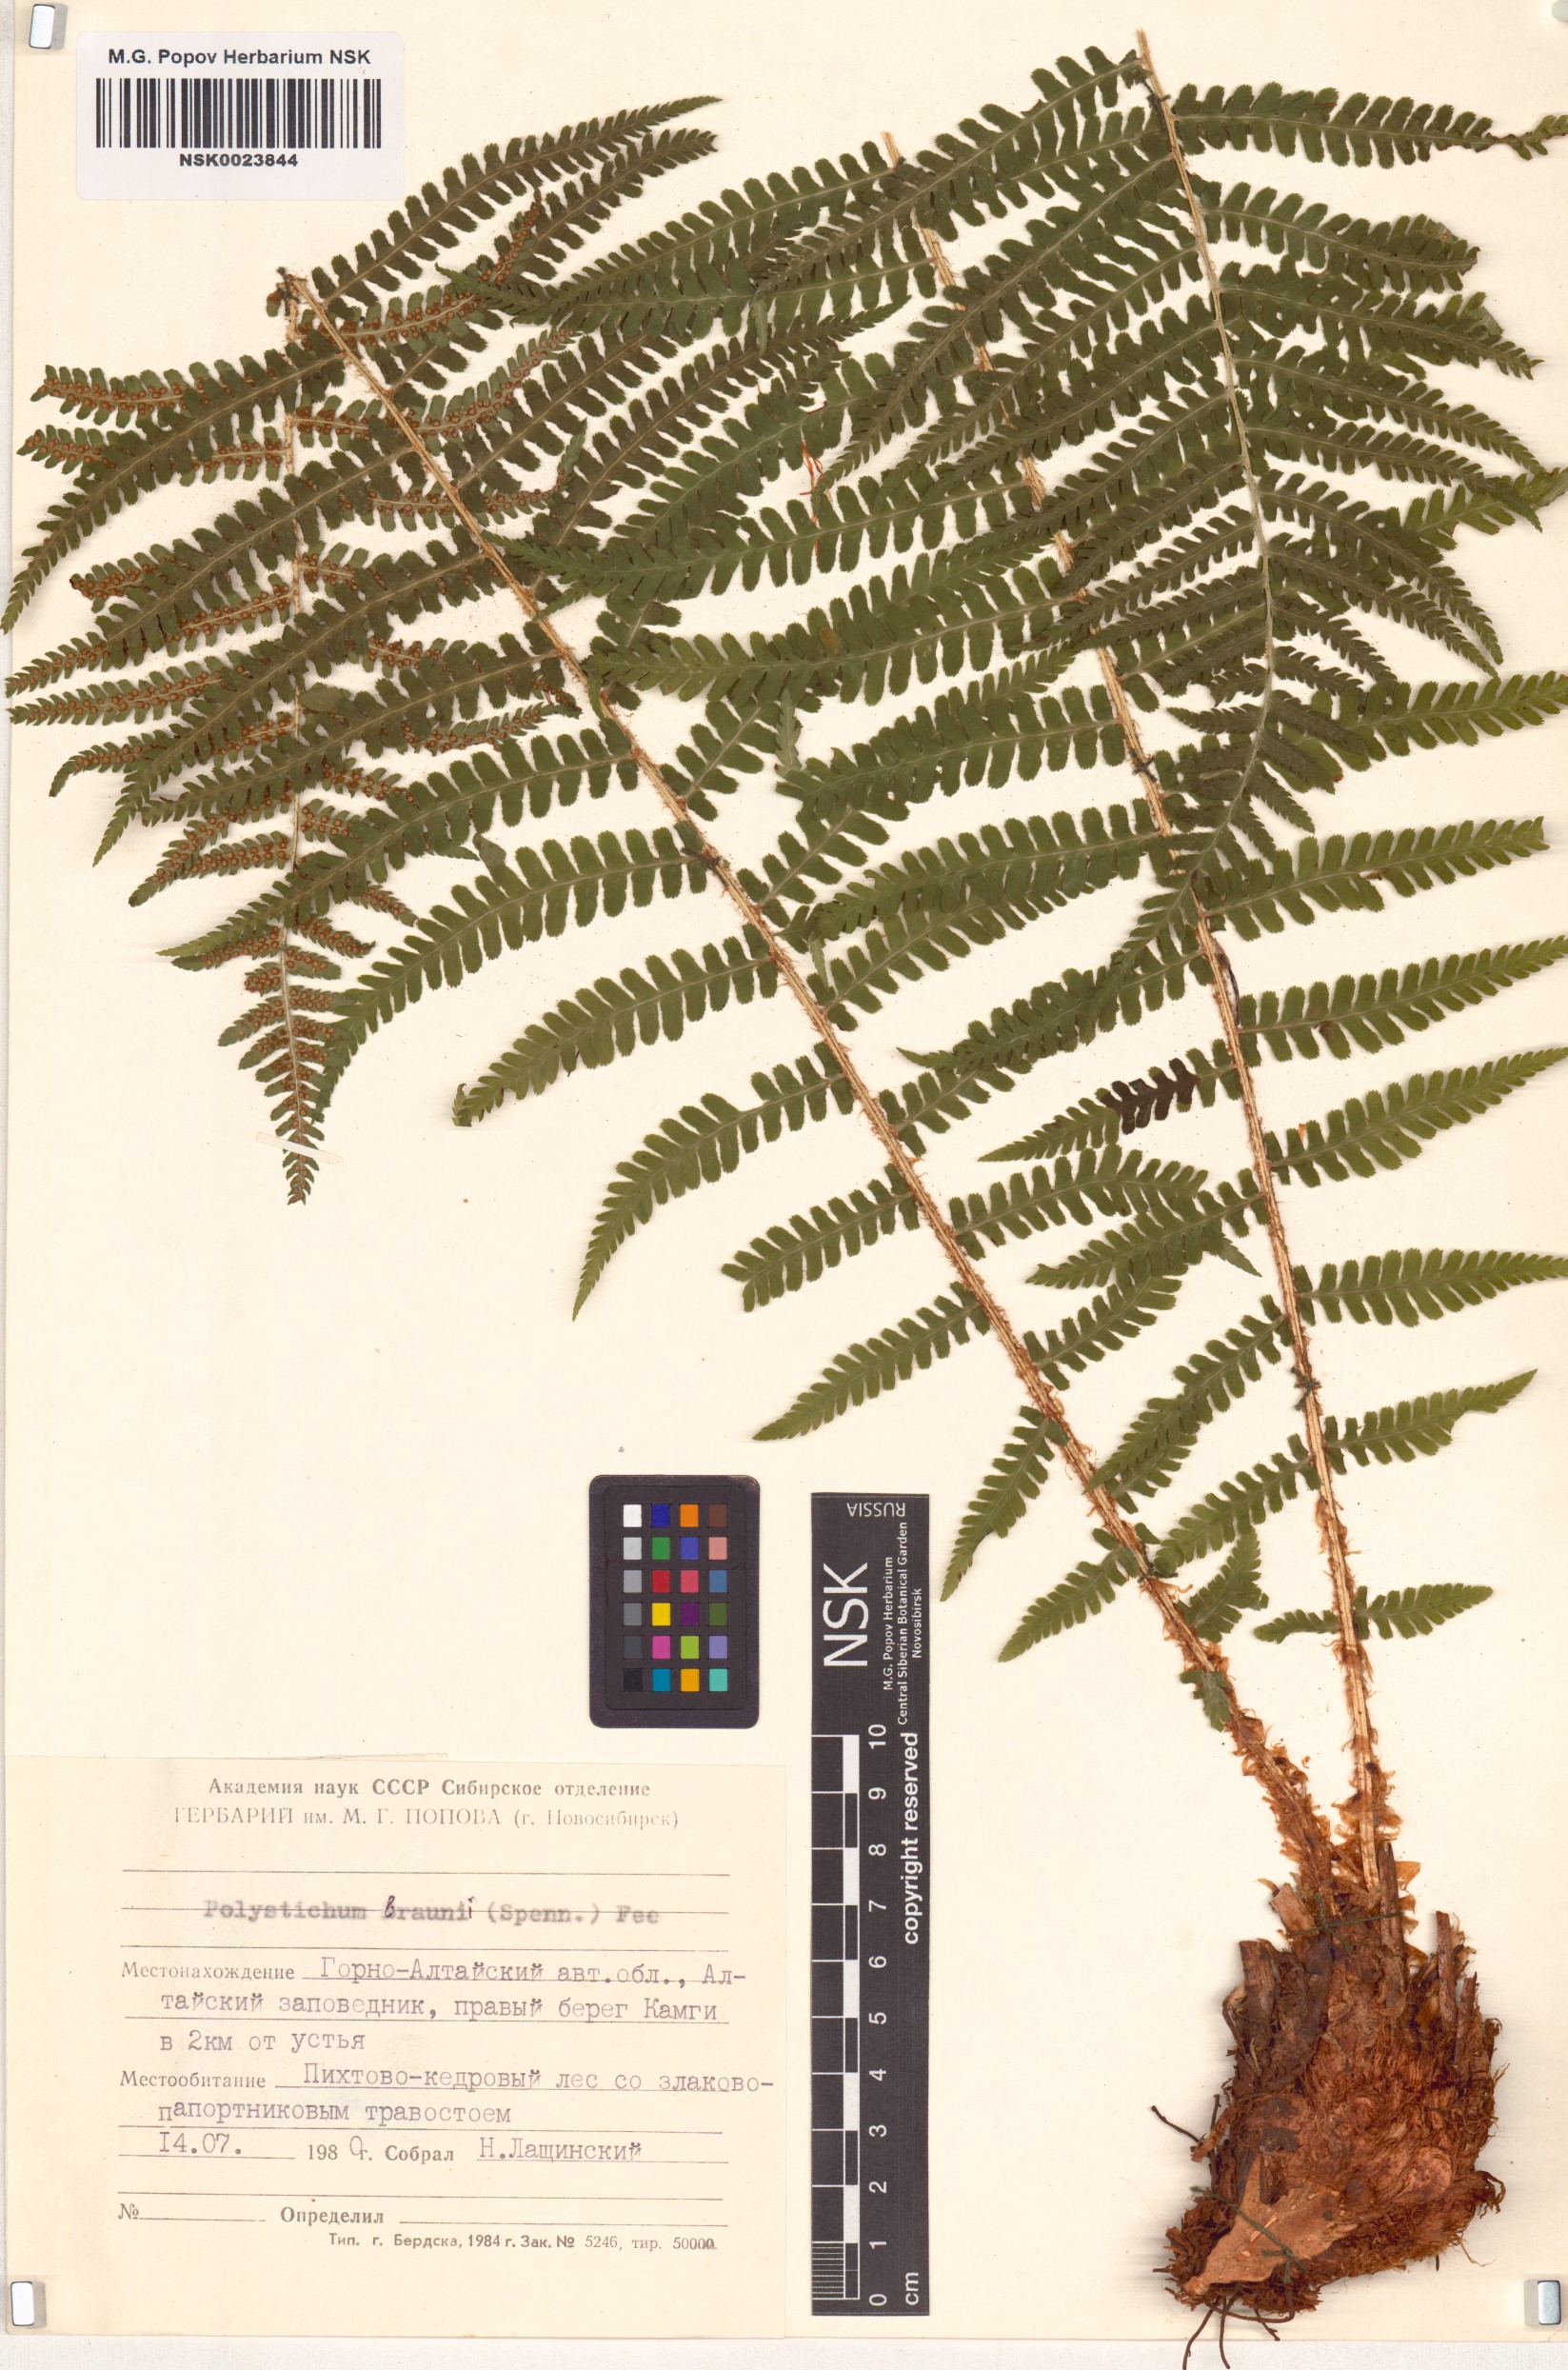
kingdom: Plantae
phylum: Tracheophyta
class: Polypodiopsida
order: Polypodiales
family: Dryopteridaceae
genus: Polystichum
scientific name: Polystichum braunii
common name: Braun's holly fern
